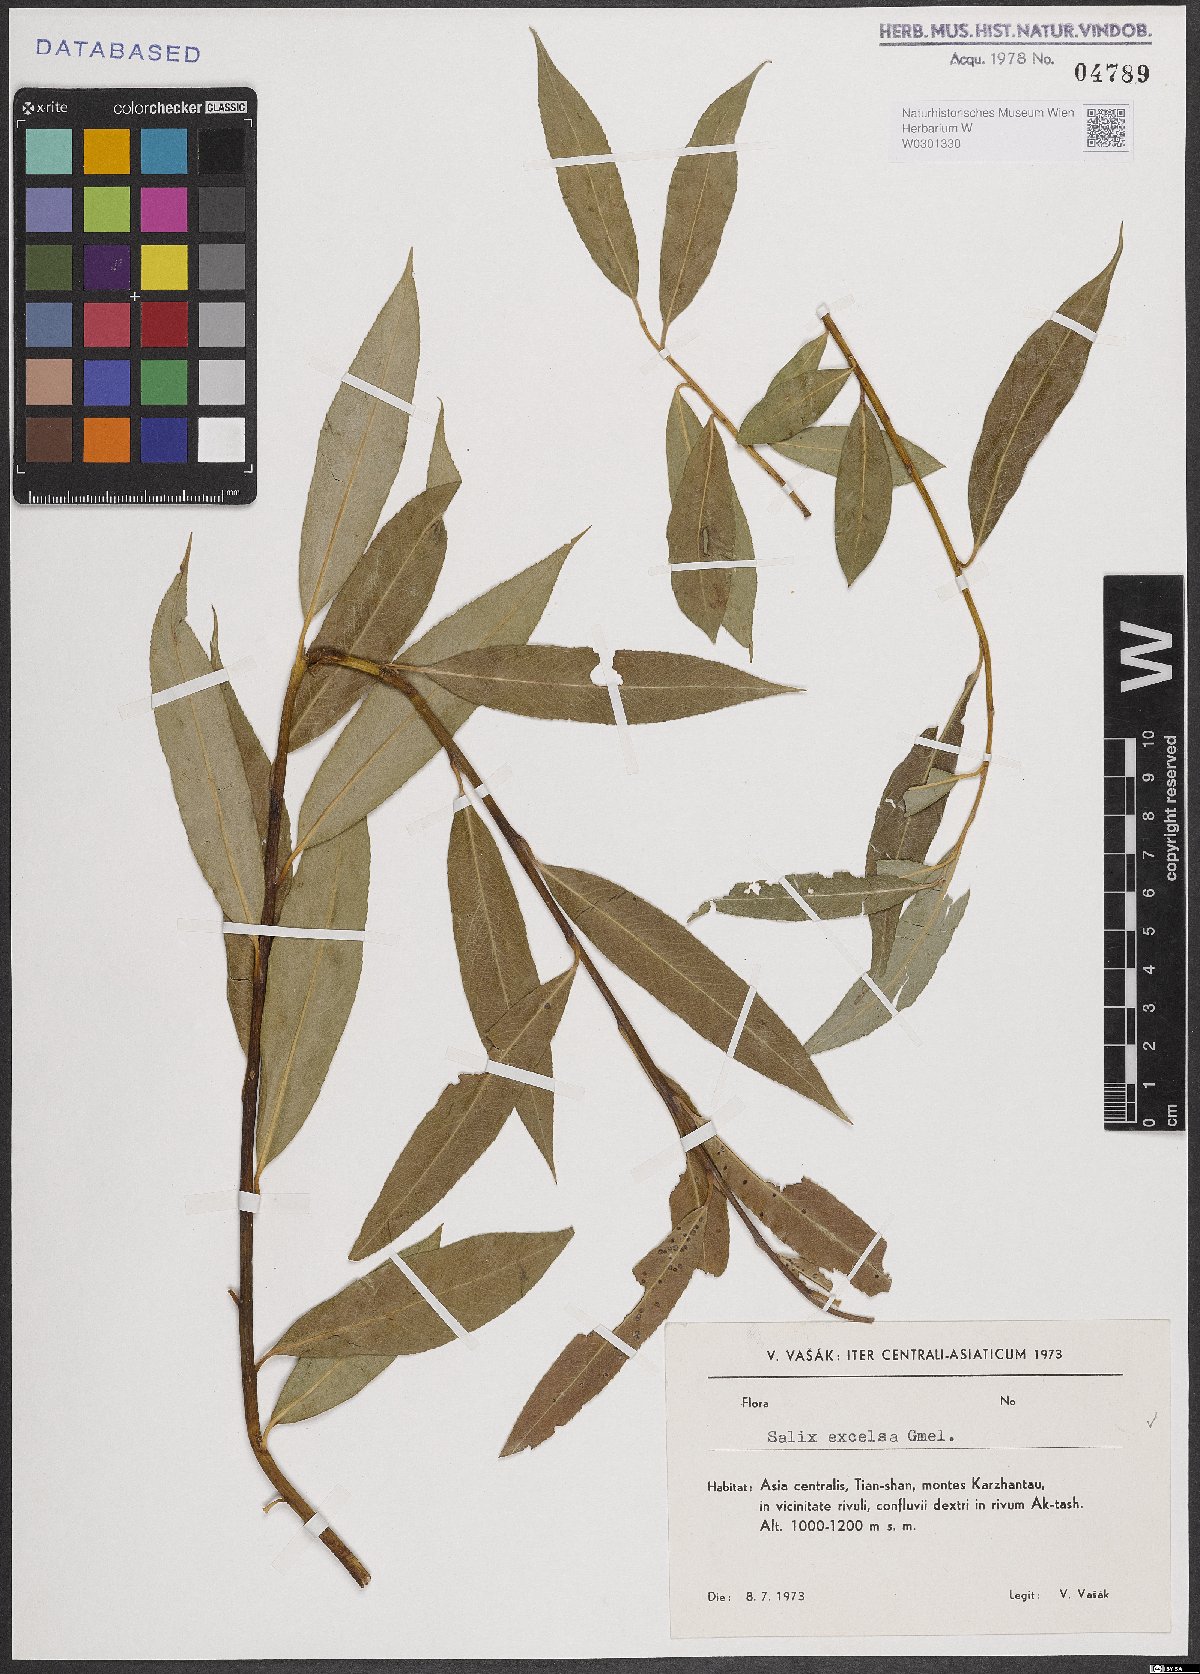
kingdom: Plantae
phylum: Tracheophyta
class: Magnoliopsida
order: Malpighiales
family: Salicaceae
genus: Salix
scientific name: Salix excelsa
